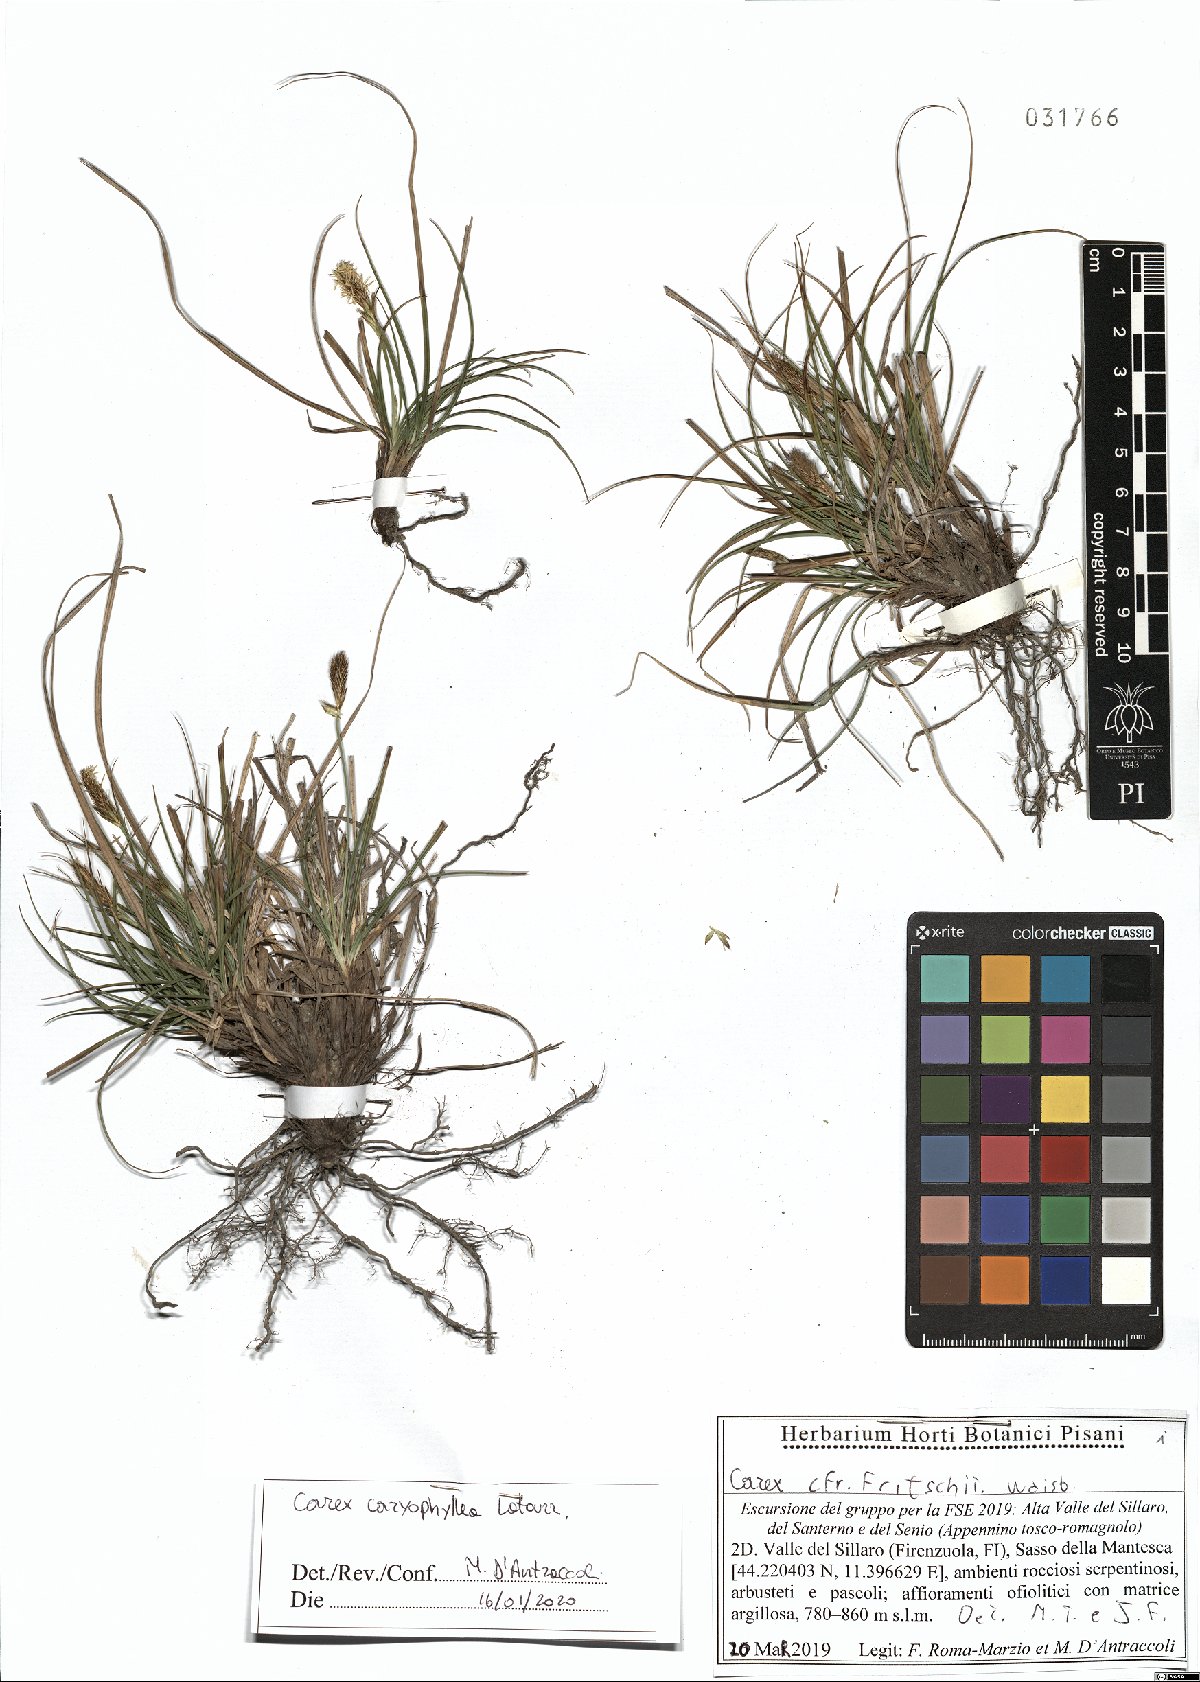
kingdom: Plantae
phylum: Tracheophyta
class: Liliopsida
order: Poales
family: Cyperaceae
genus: Carex
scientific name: Carex caryophyllea
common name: Spring sedge
